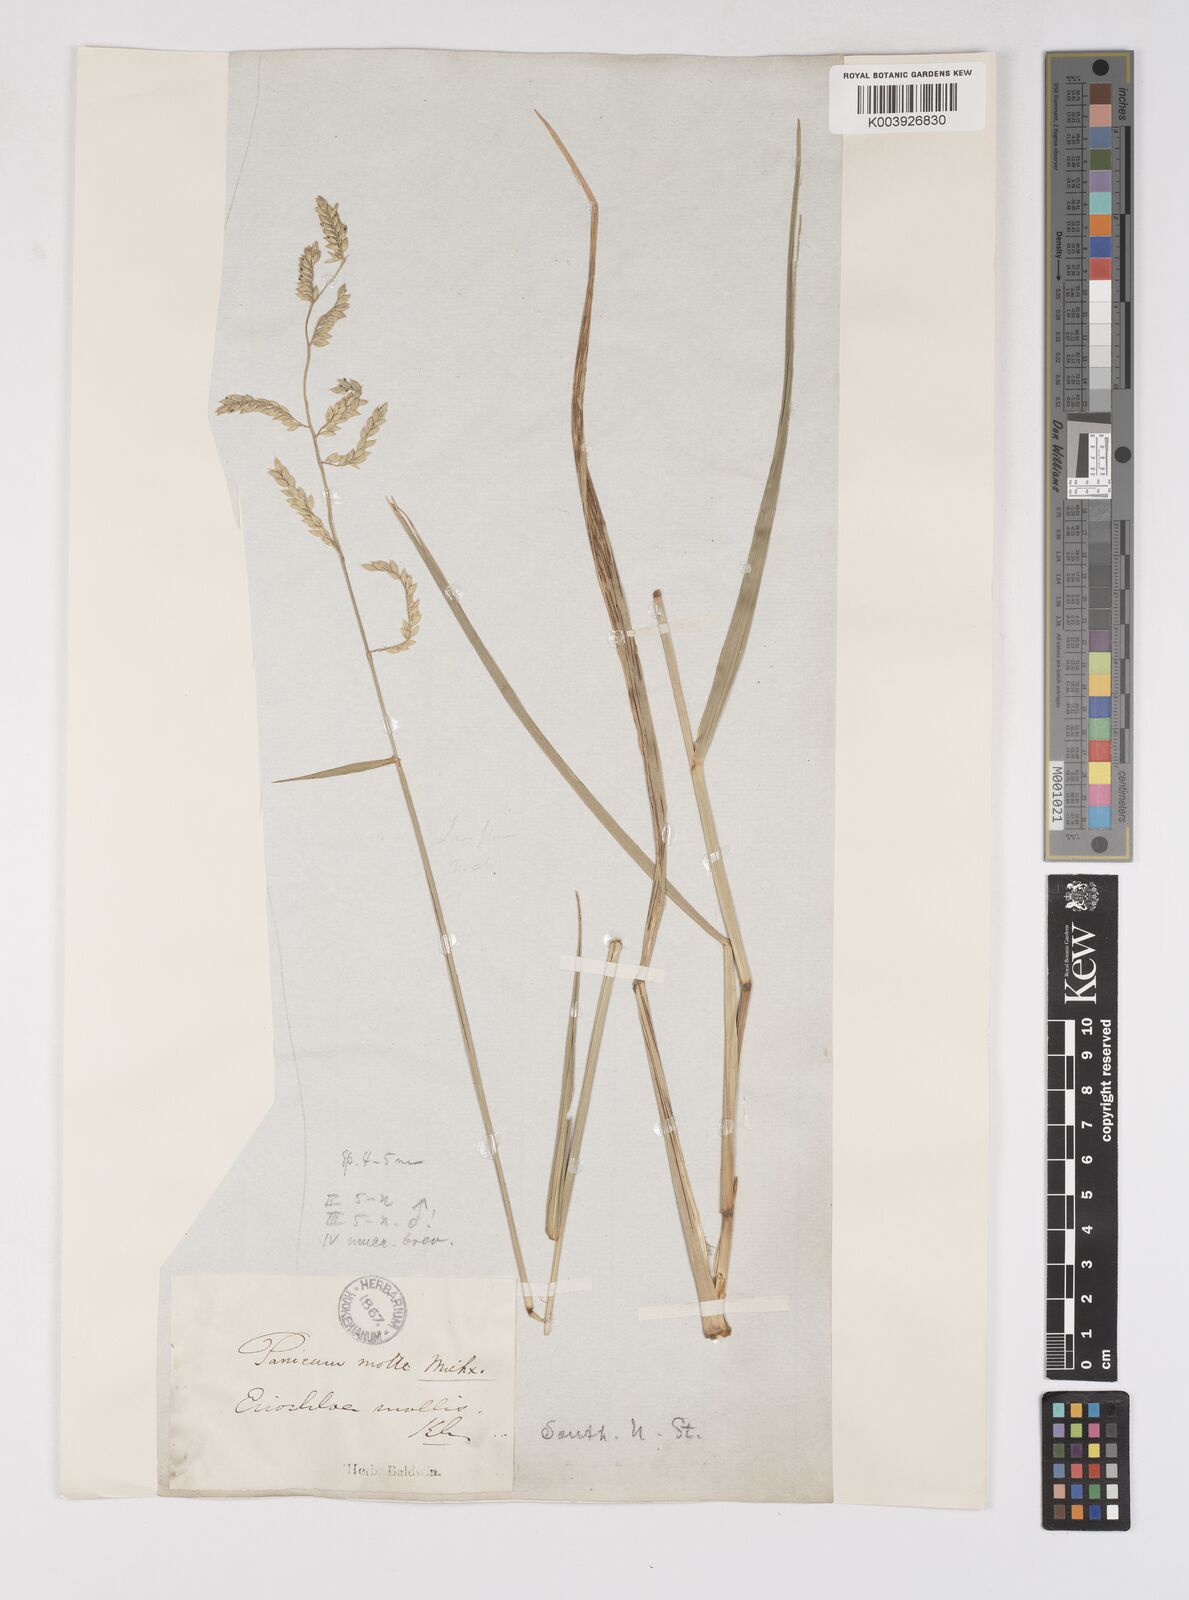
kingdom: Plantae
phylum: Tracheophyta
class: Liliopsida
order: Poales
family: Poaceae
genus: Eriochloa
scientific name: Eriochloa michauxii
